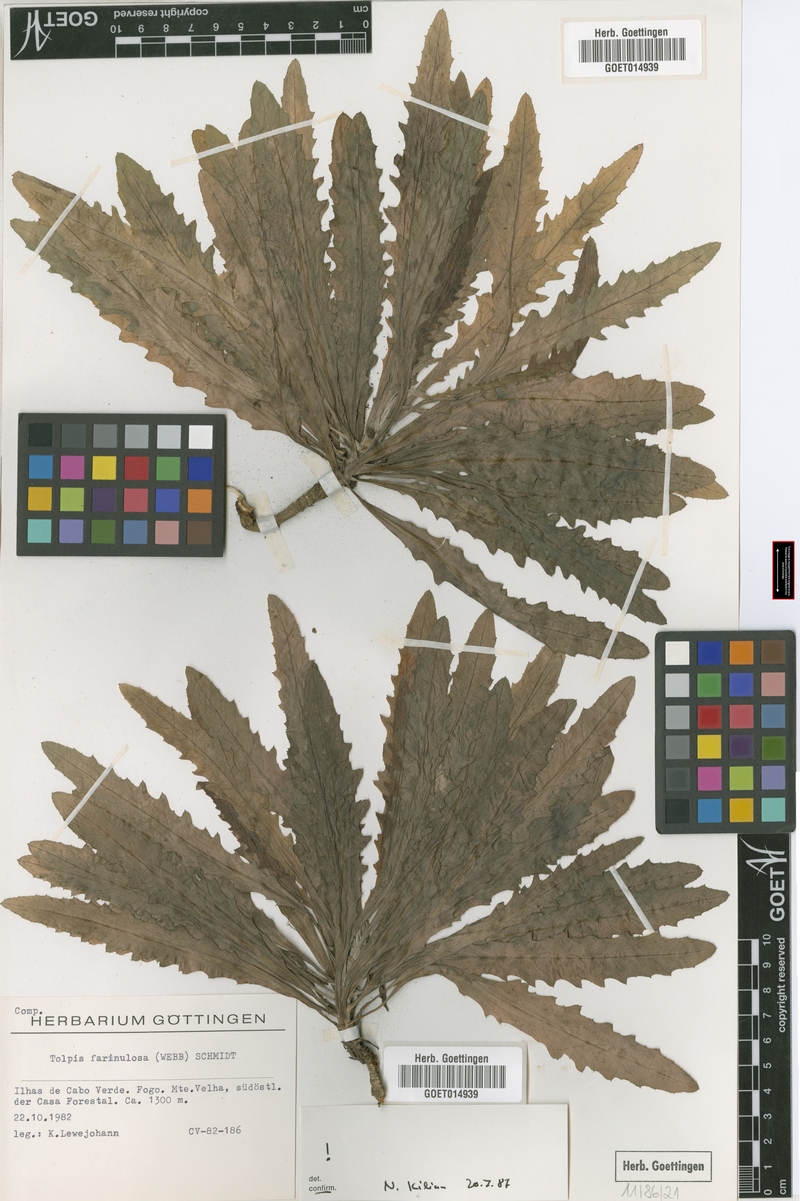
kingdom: Plantae
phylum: Tracheophyta
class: Magnoliopsida
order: Asterales
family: Asteraceae
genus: Tolpis
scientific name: Tolpis farinulosa
